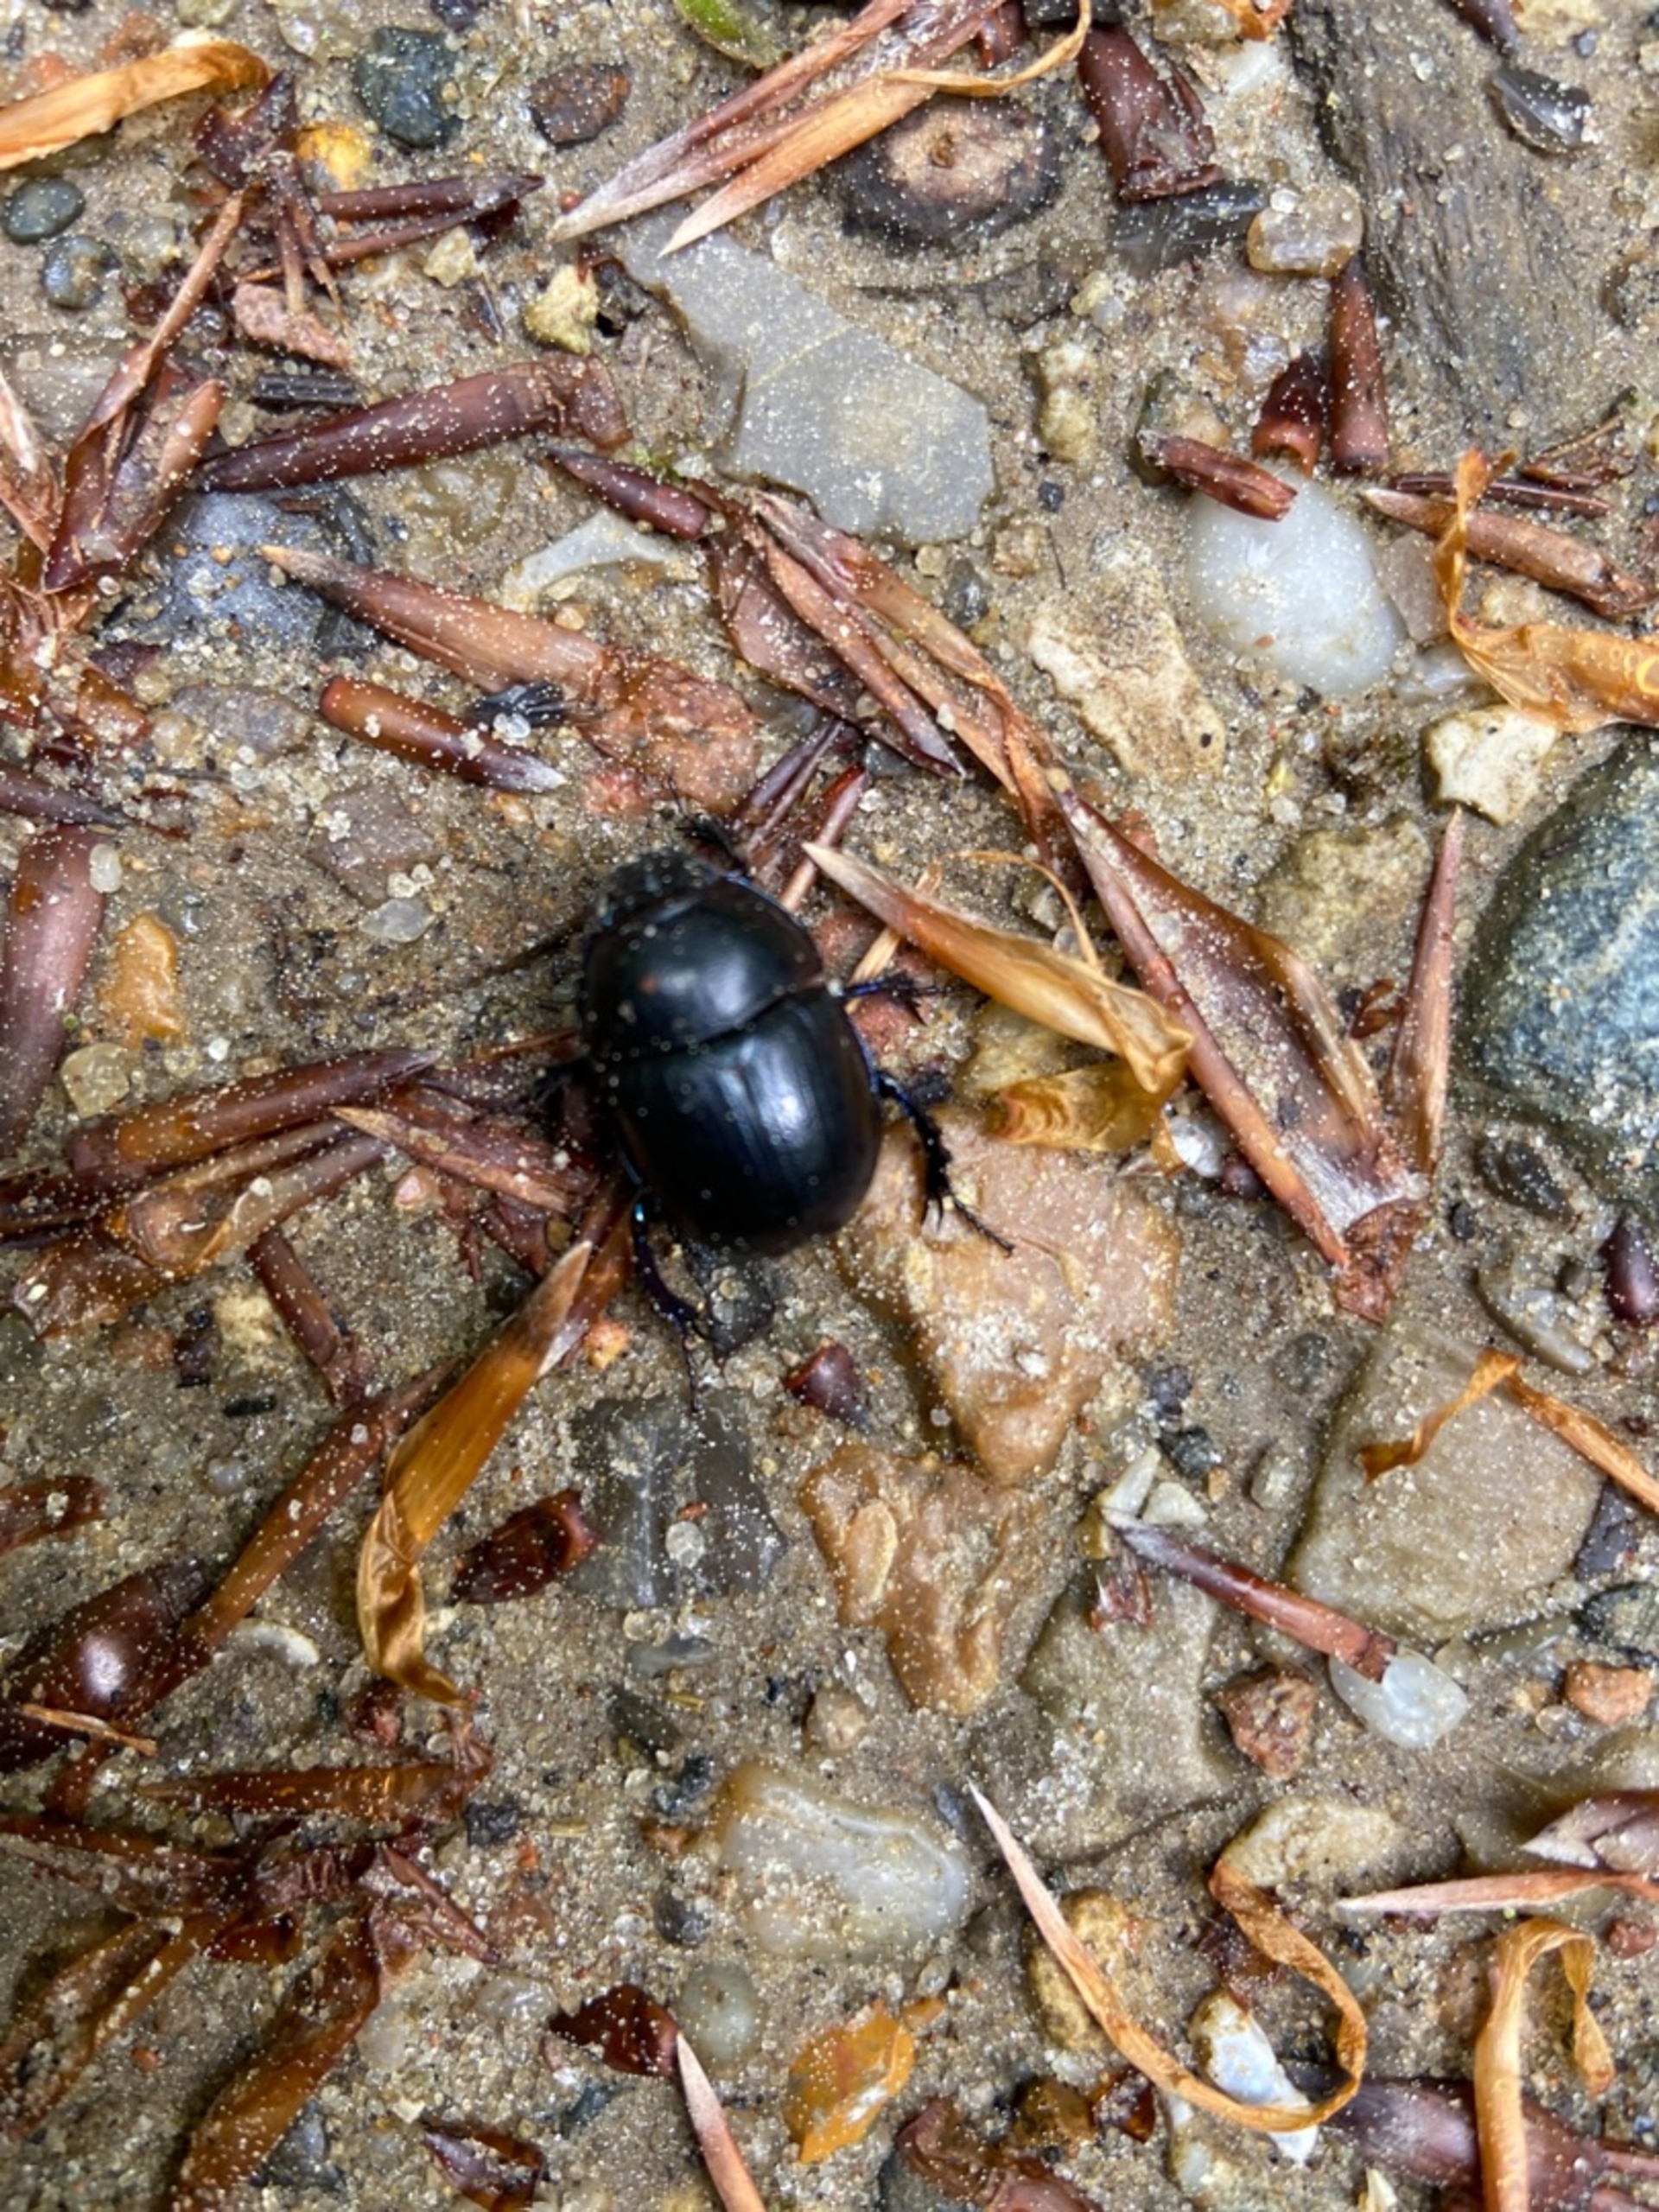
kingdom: Animalia
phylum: Arthropoda
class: Insecta
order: Coleoptera
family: Geotrupidae
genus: Anoplotrupes
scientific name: Anoplotrupes stercorosus
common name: Skovskarnbasse
